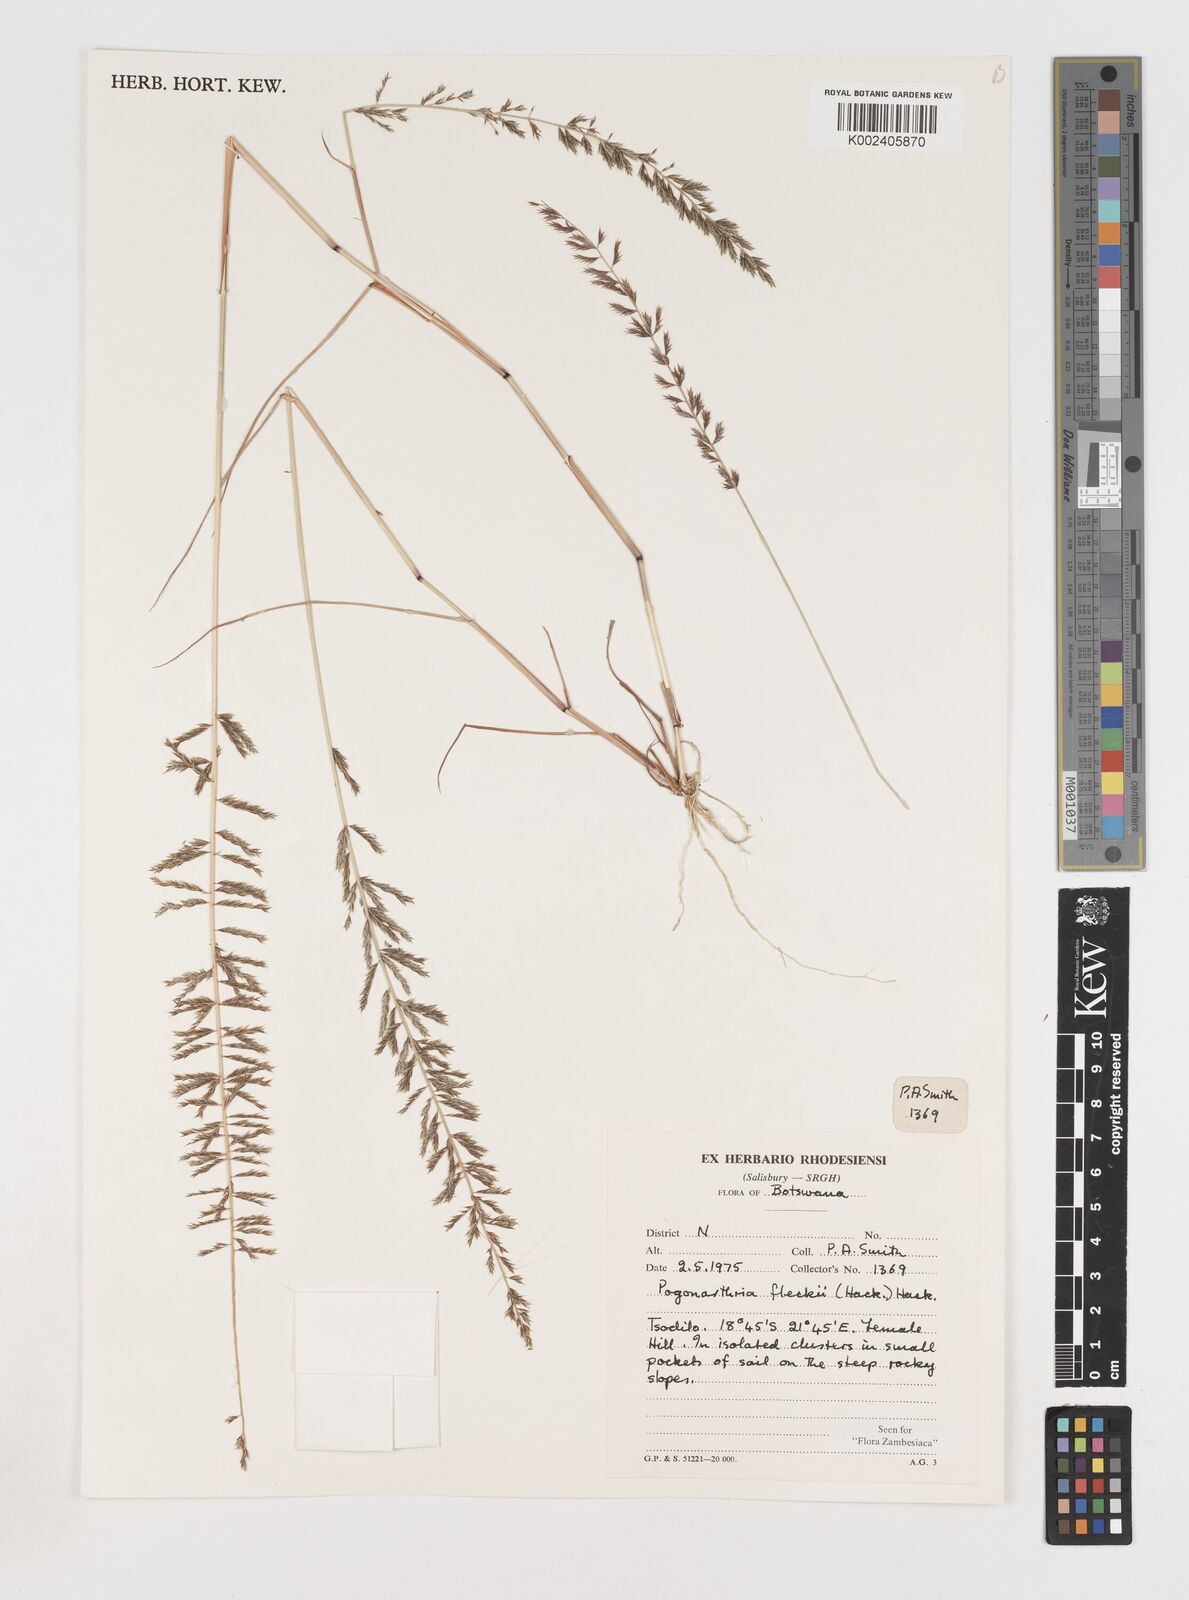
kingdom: Plantae
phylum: Tracheophyta
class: Liliopsida
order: Poales
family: Poaceae
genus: Pogonarthria
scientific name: Pogonarthria fleckii
